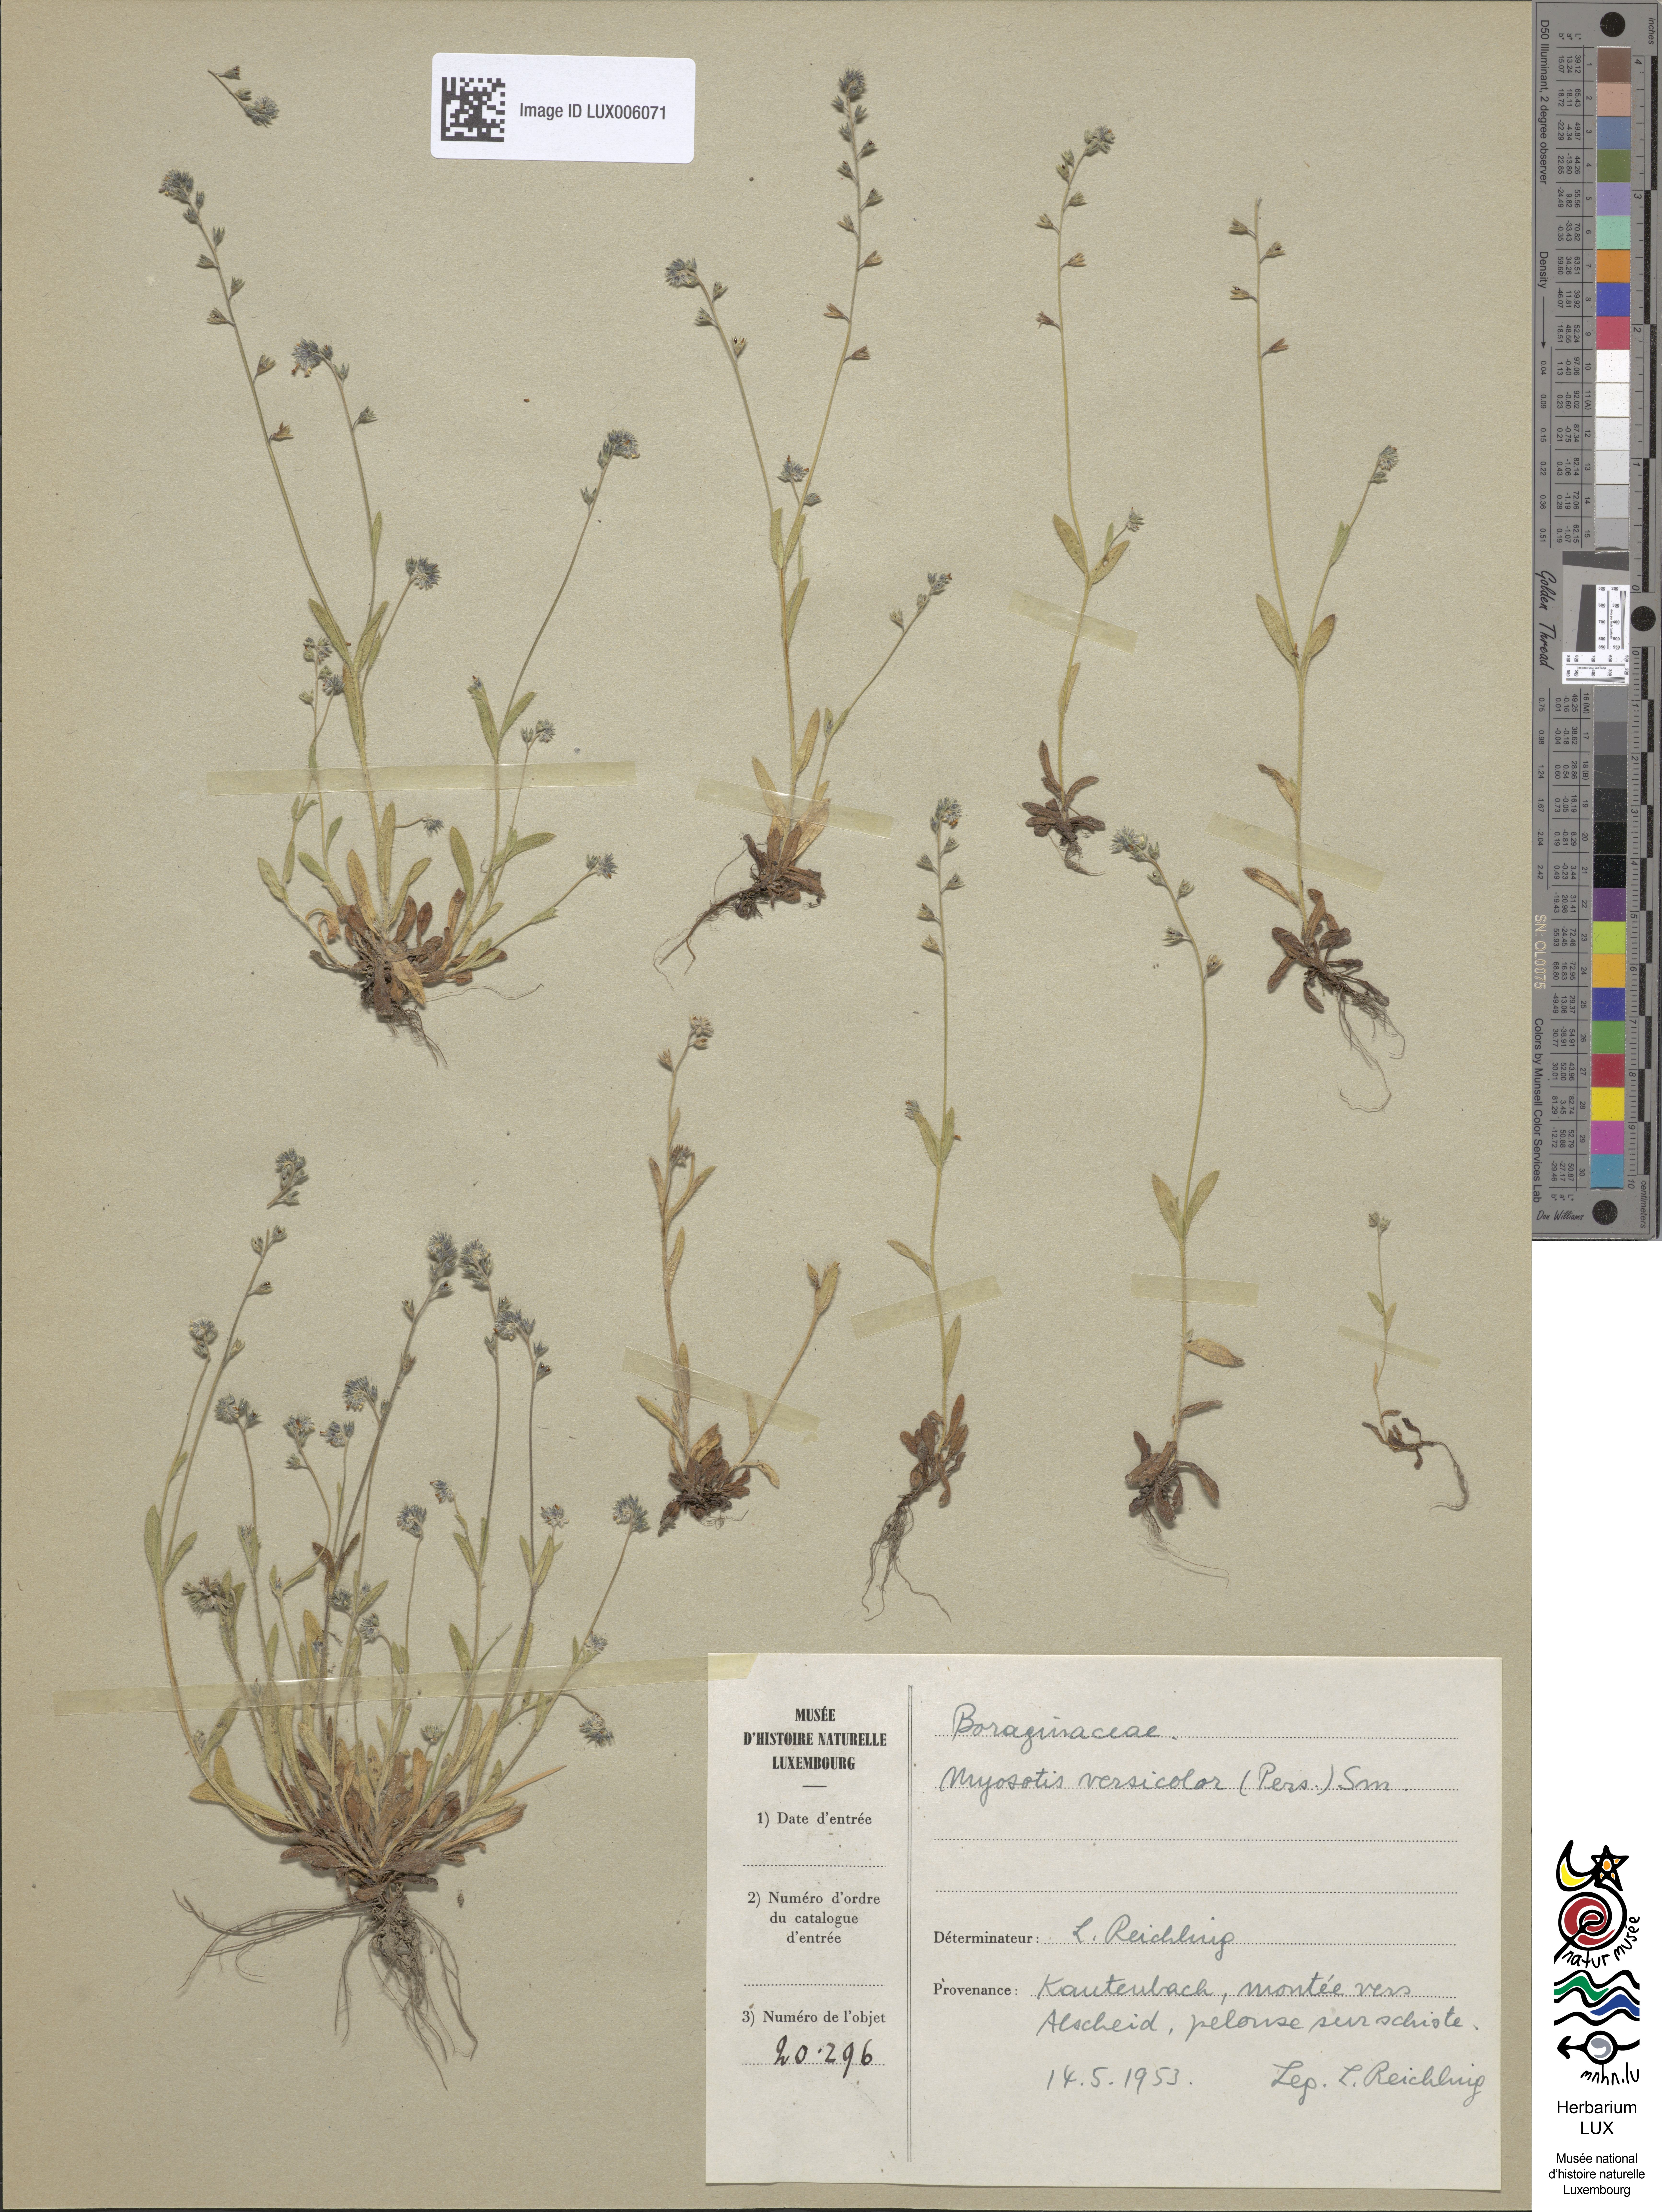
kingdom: Plantae
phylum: Tracheophyta
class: Magnoliopsida
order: Boraginales
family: Boraginaceae
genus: Myosotis
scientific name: Myosotis discolor
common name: Changing forget-me-not
